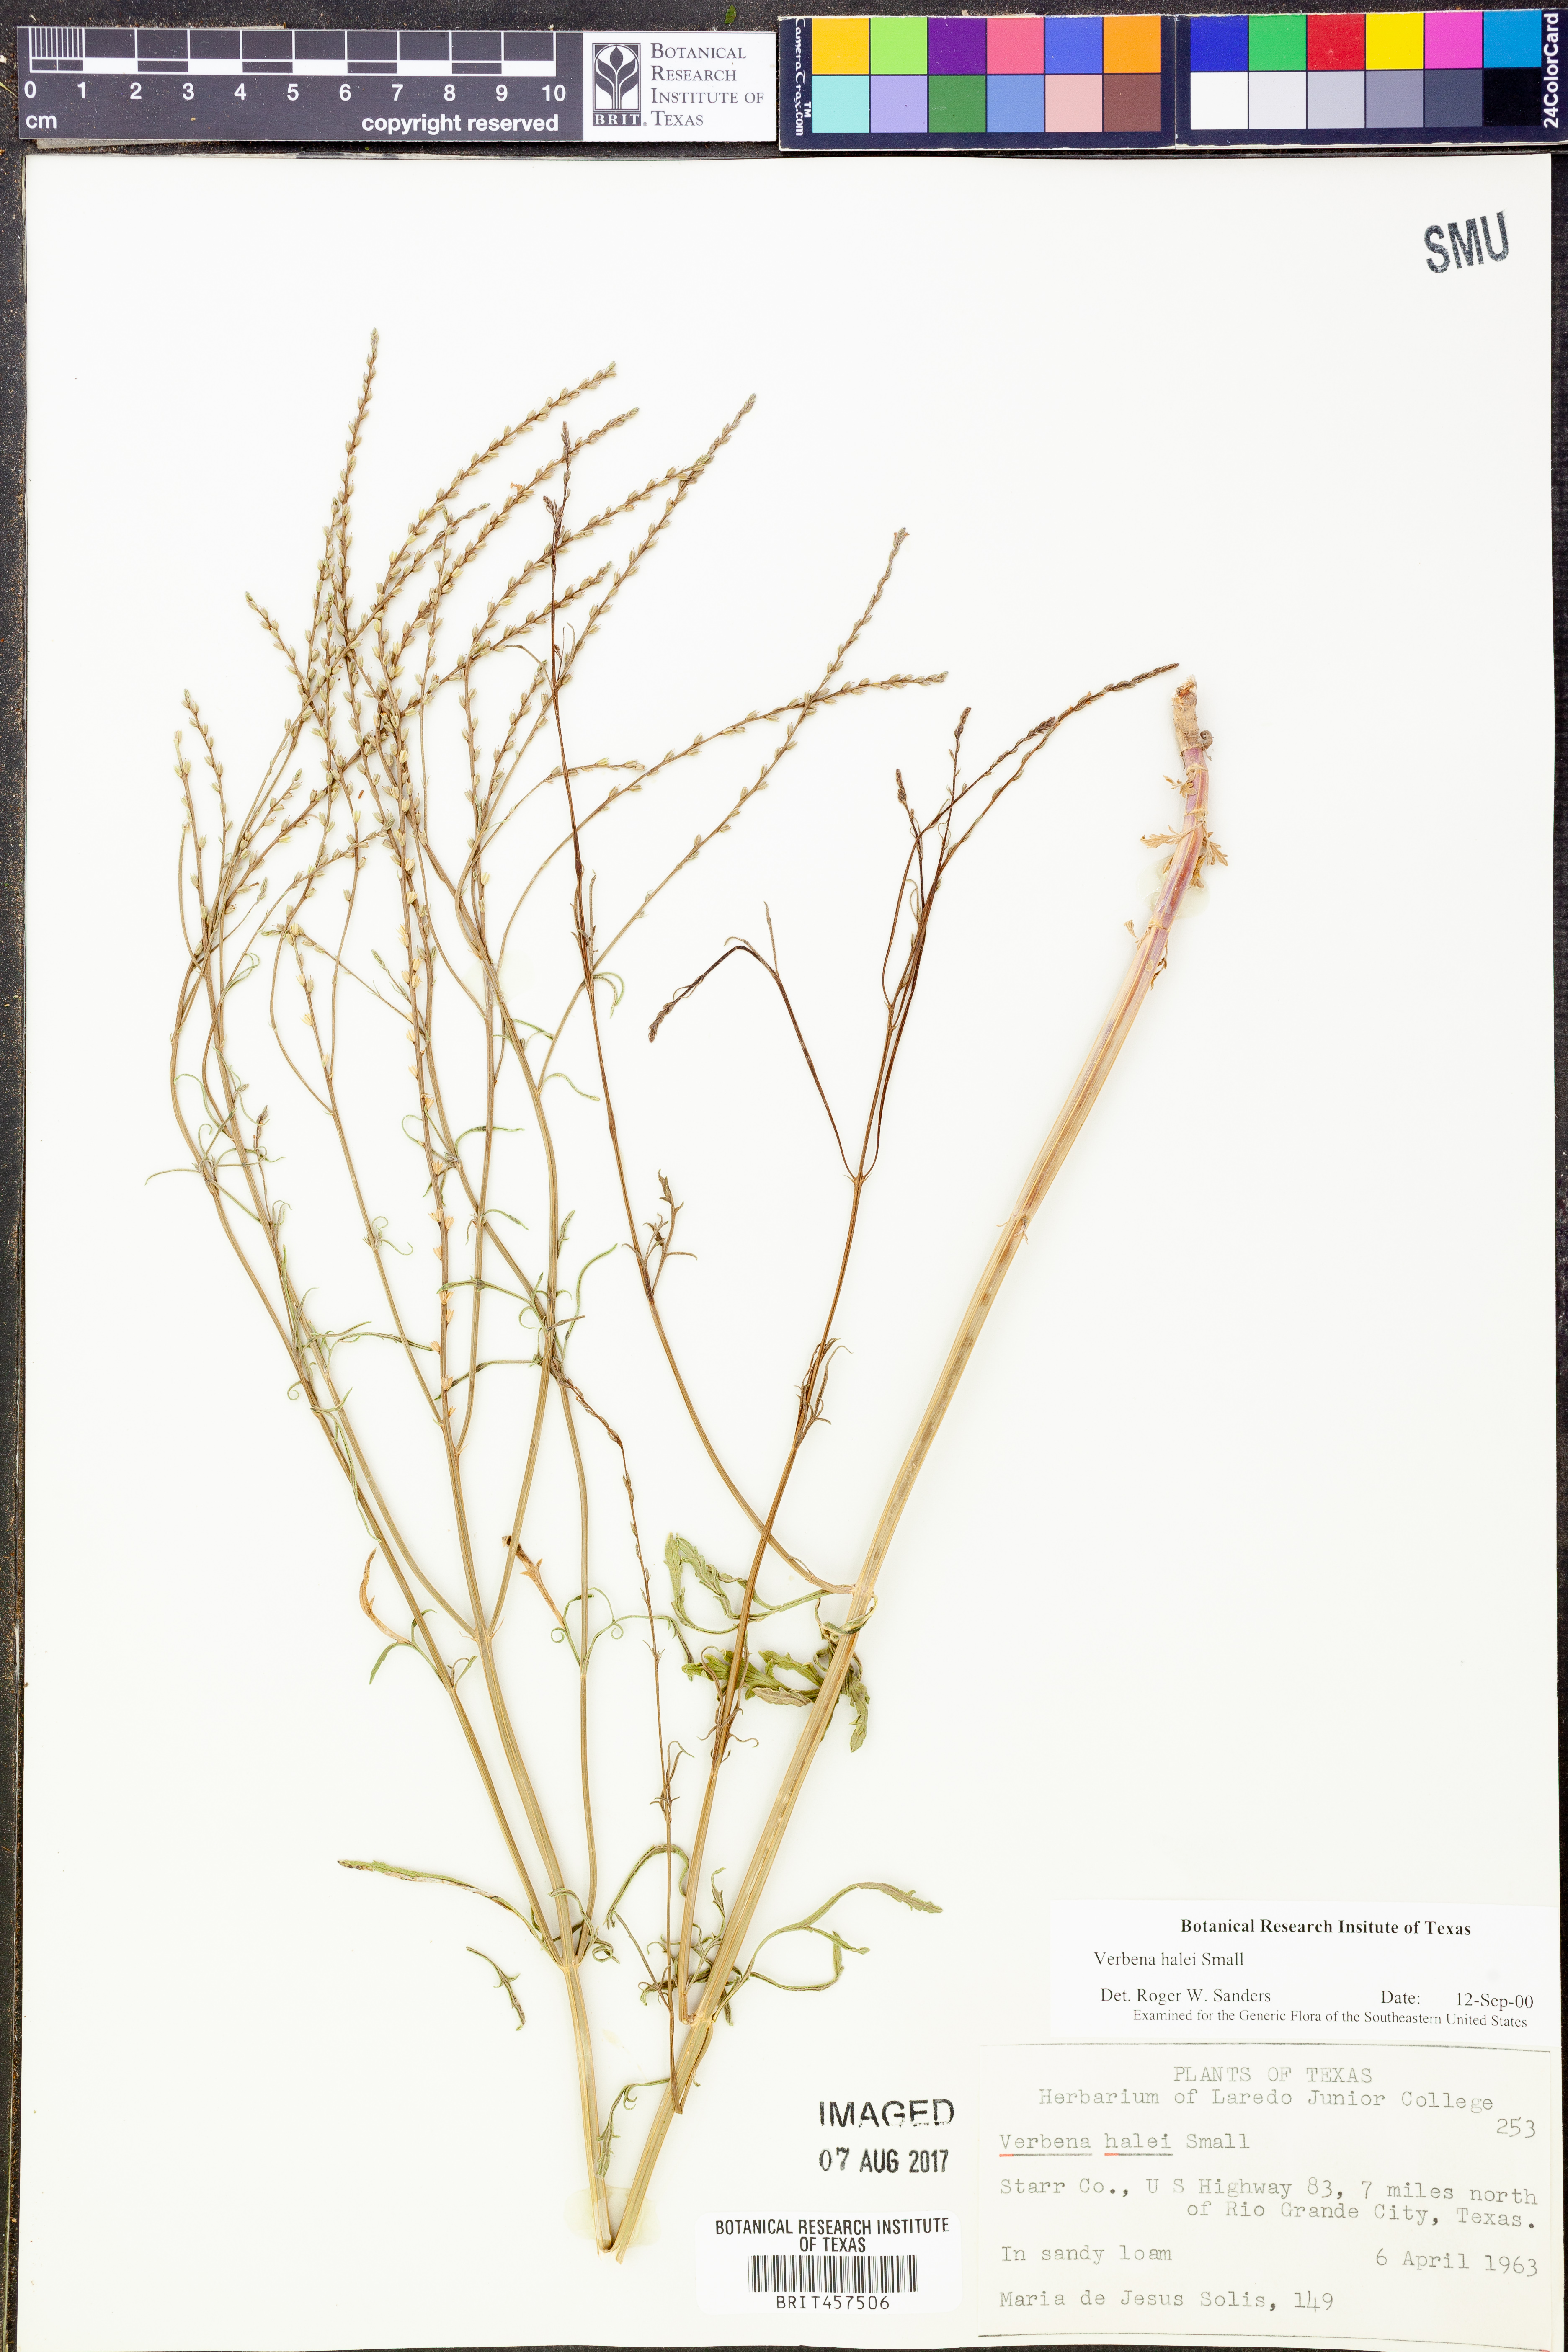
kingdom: Plantae
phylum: Tracheophyta
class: Magnoliopsida
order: Lamiales
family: Verbenaceae
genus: Verbena
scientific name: Verbena halei
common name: Texas vervain
